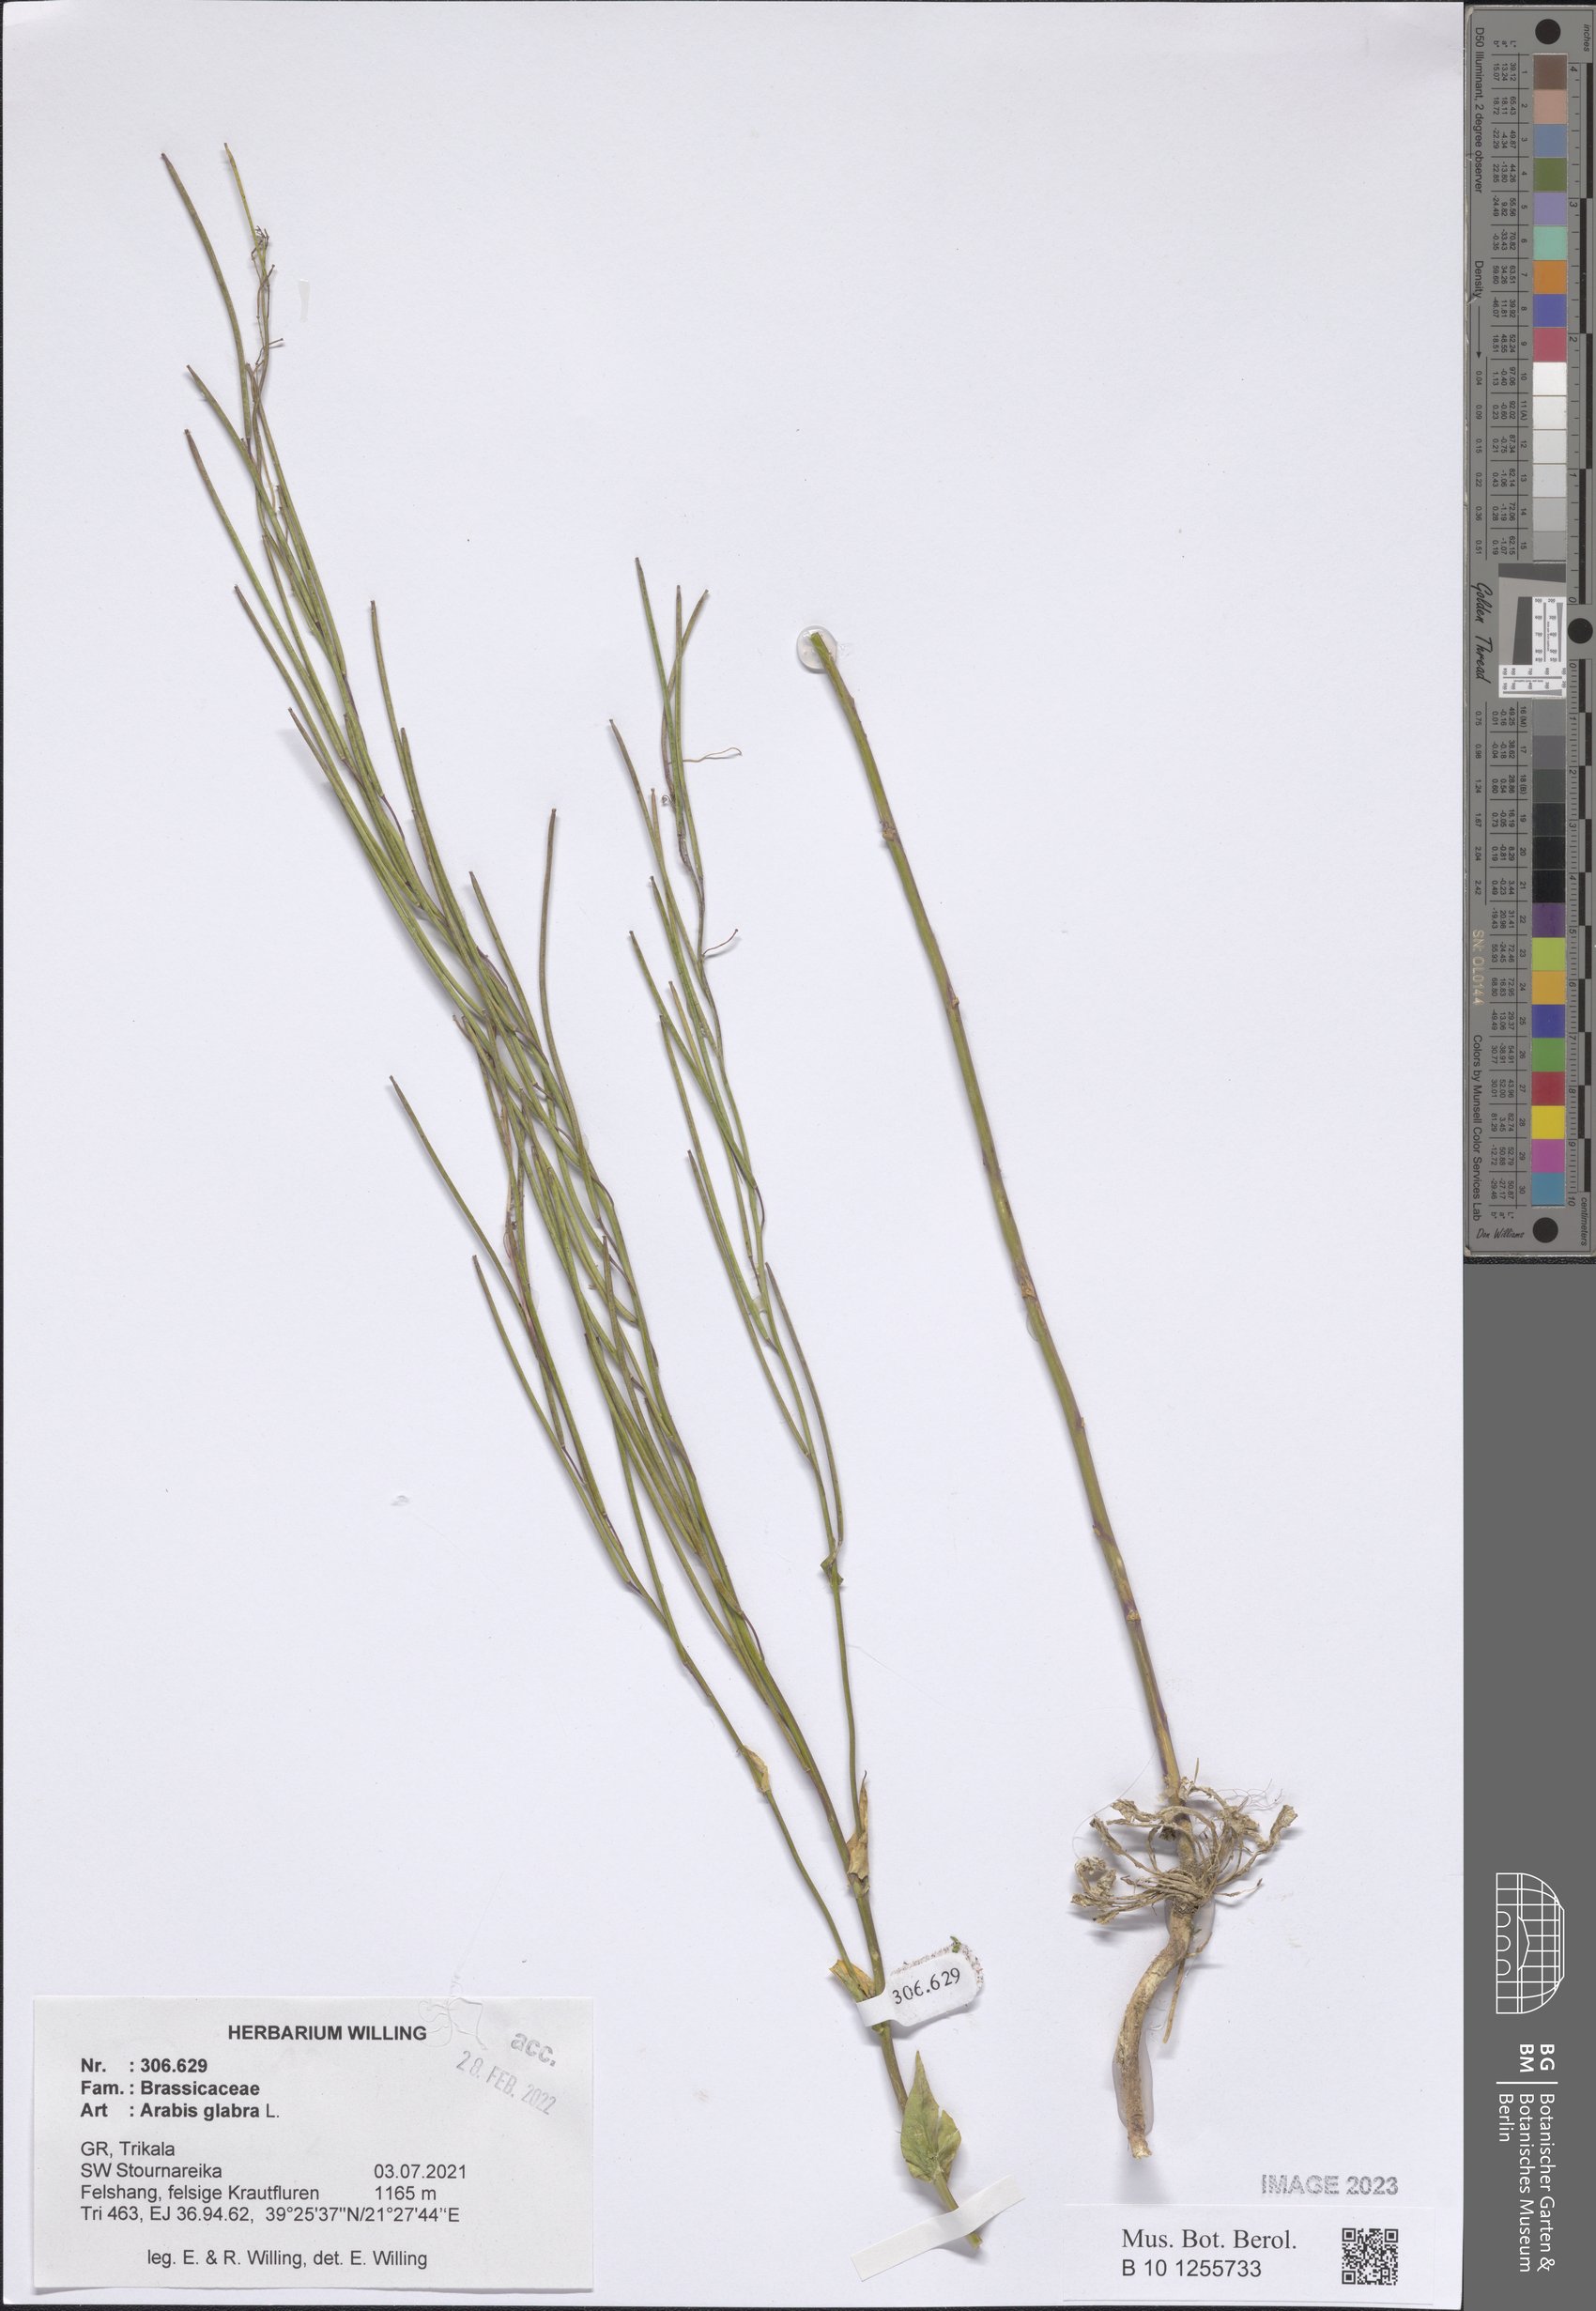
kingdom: Plantae
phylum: Tracheophyta
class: Magnoliopsida
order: Brassicales
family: Brassicaceae
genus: Turritis
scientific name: Turritis glabra
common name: Tower rockcress
